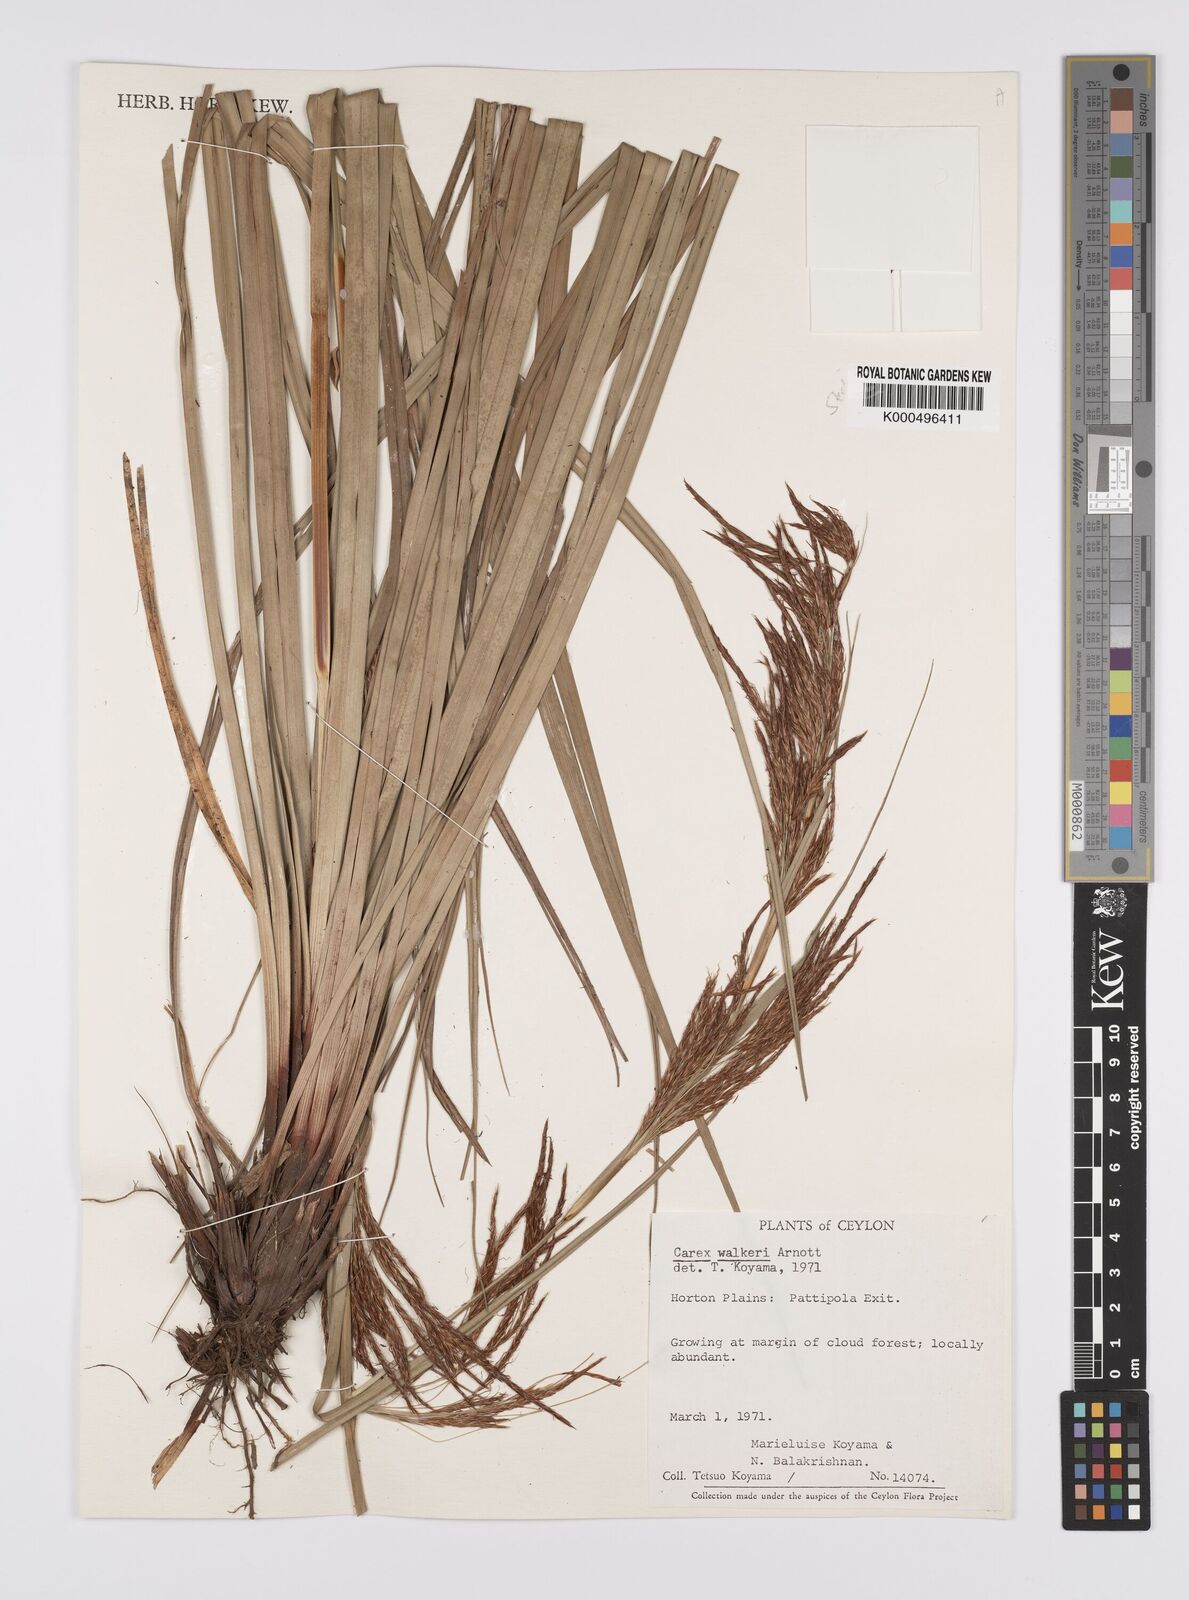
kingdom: Plantae
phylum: Tracheophyta
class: Liliopsida
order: Poales
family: Cyperaceae
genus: Carex
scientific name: Carex walkeri
